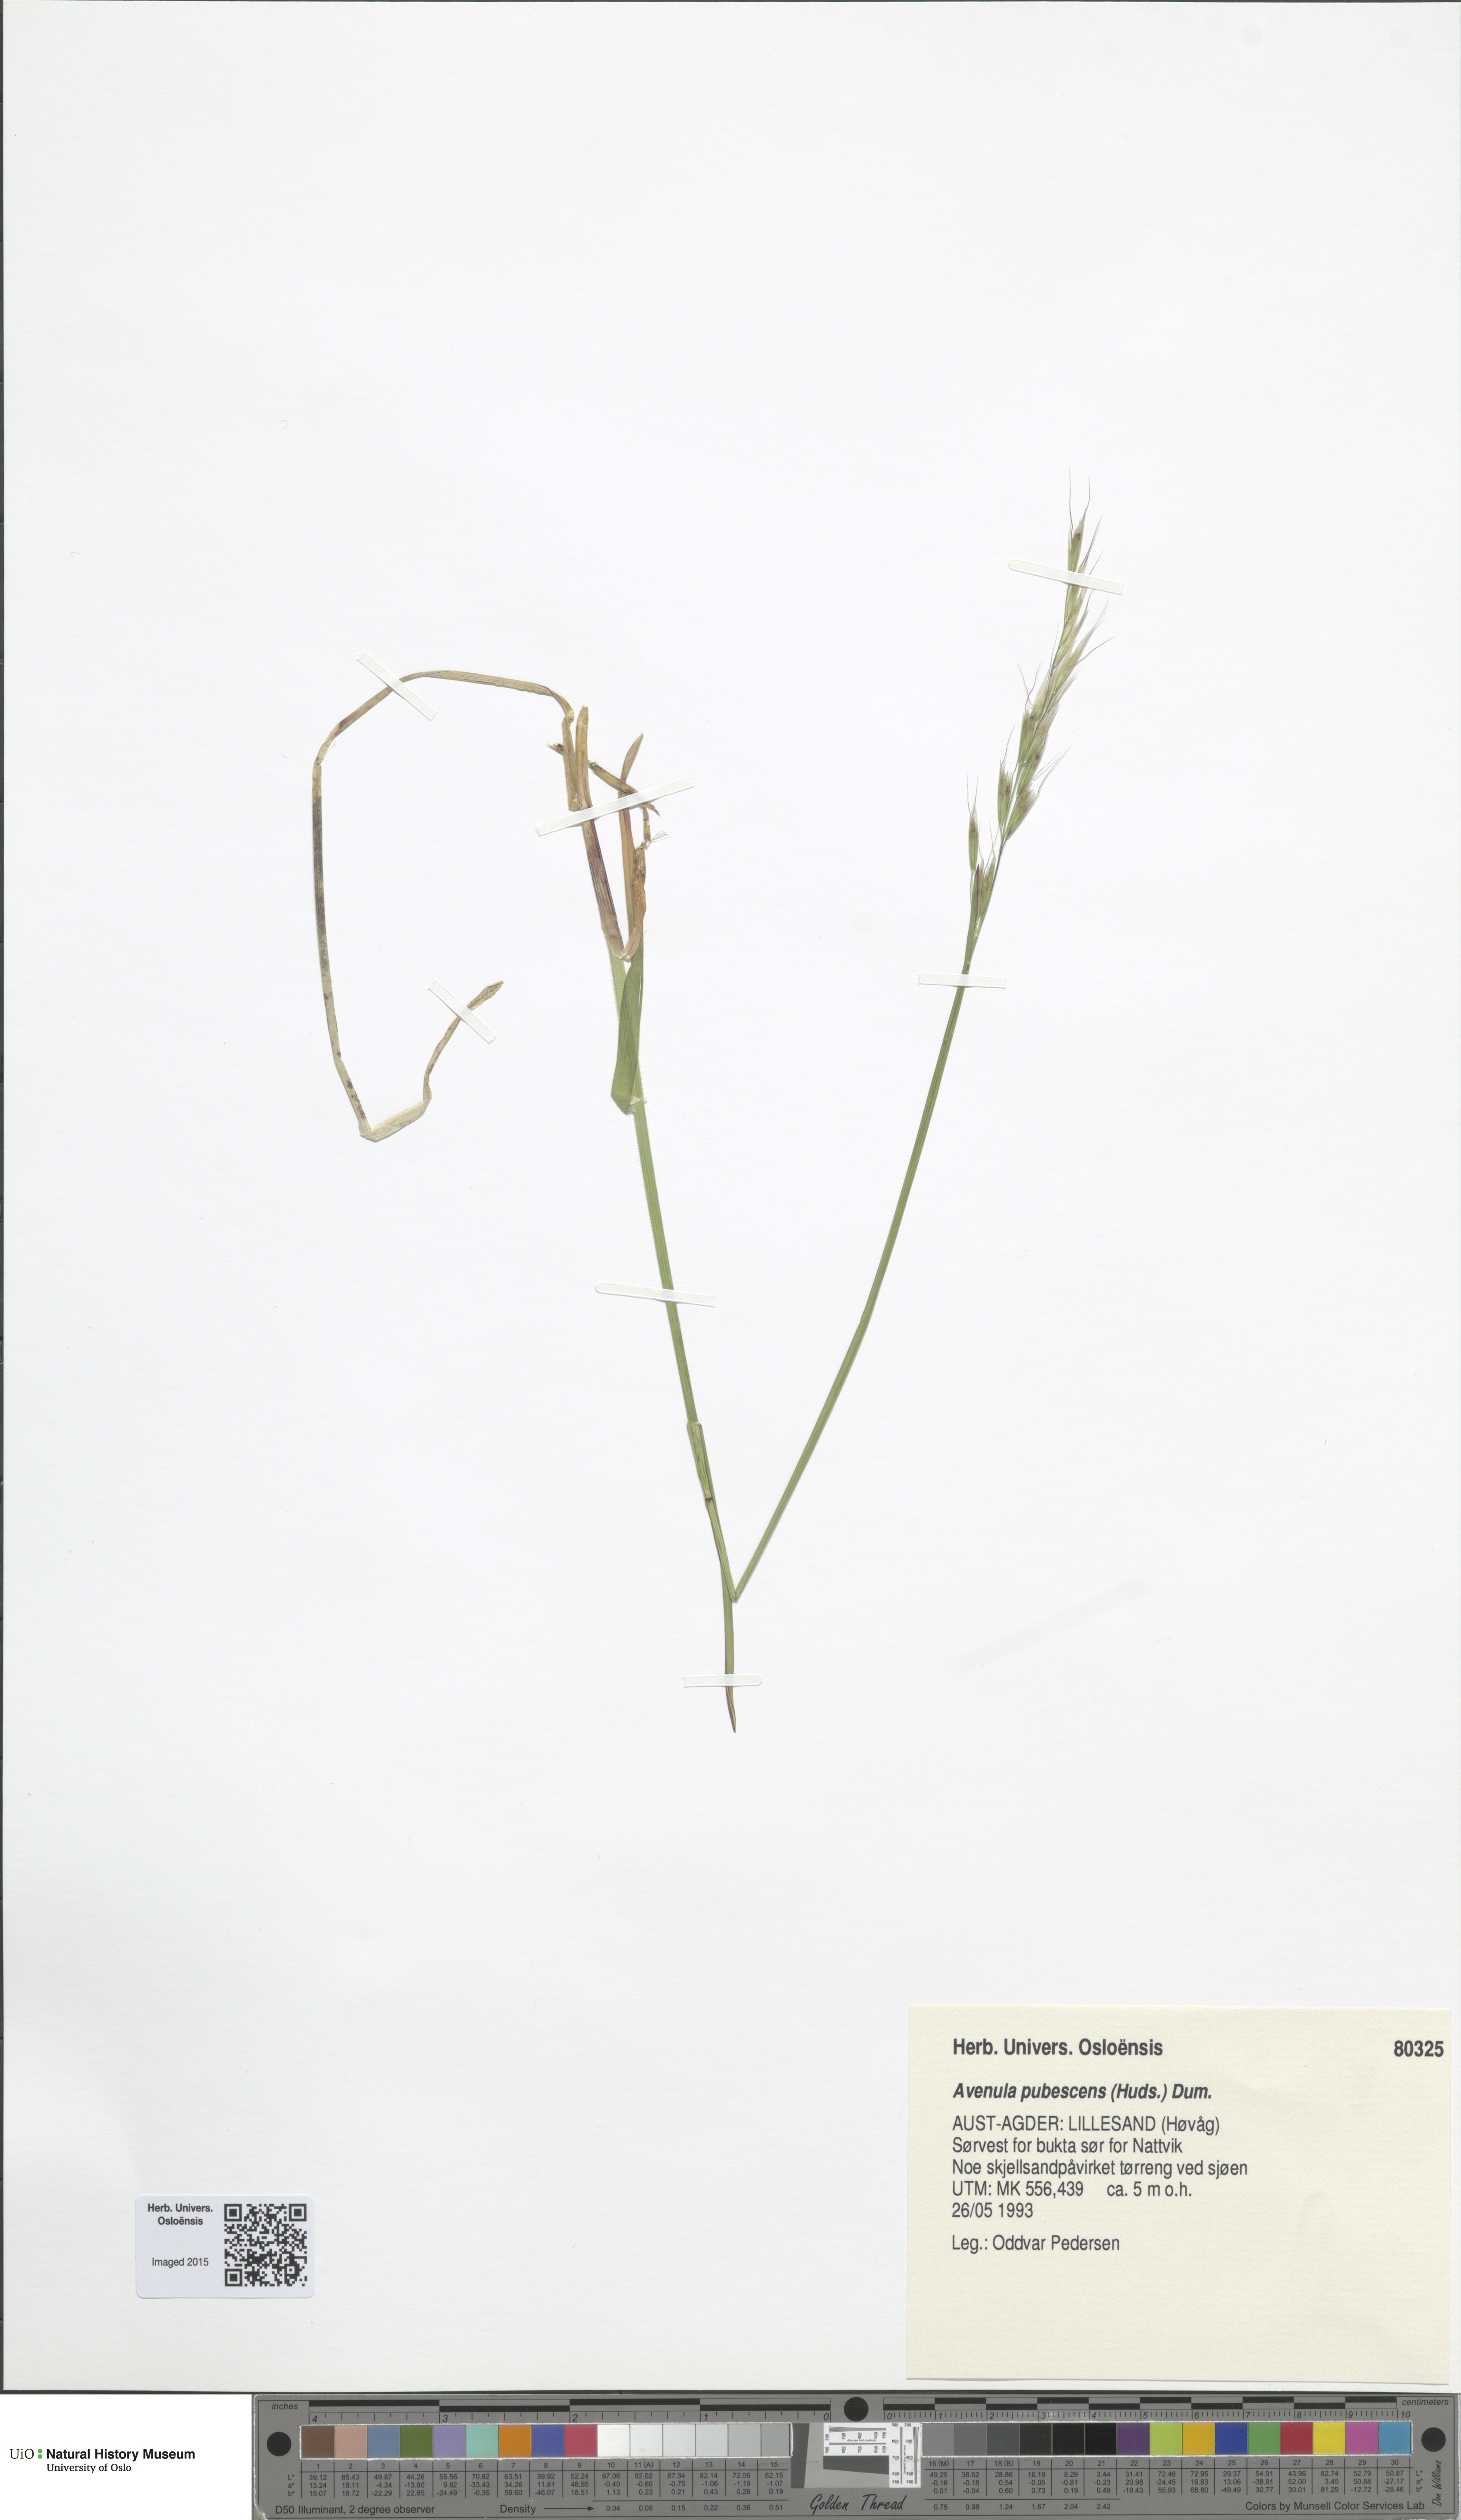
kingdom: Plantae
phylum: Tracheophyta
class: Liliopsida
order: Poales
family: Poaceae
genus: Avenula
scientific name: Avenula pubescens
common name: Downy alpine oatgrass
